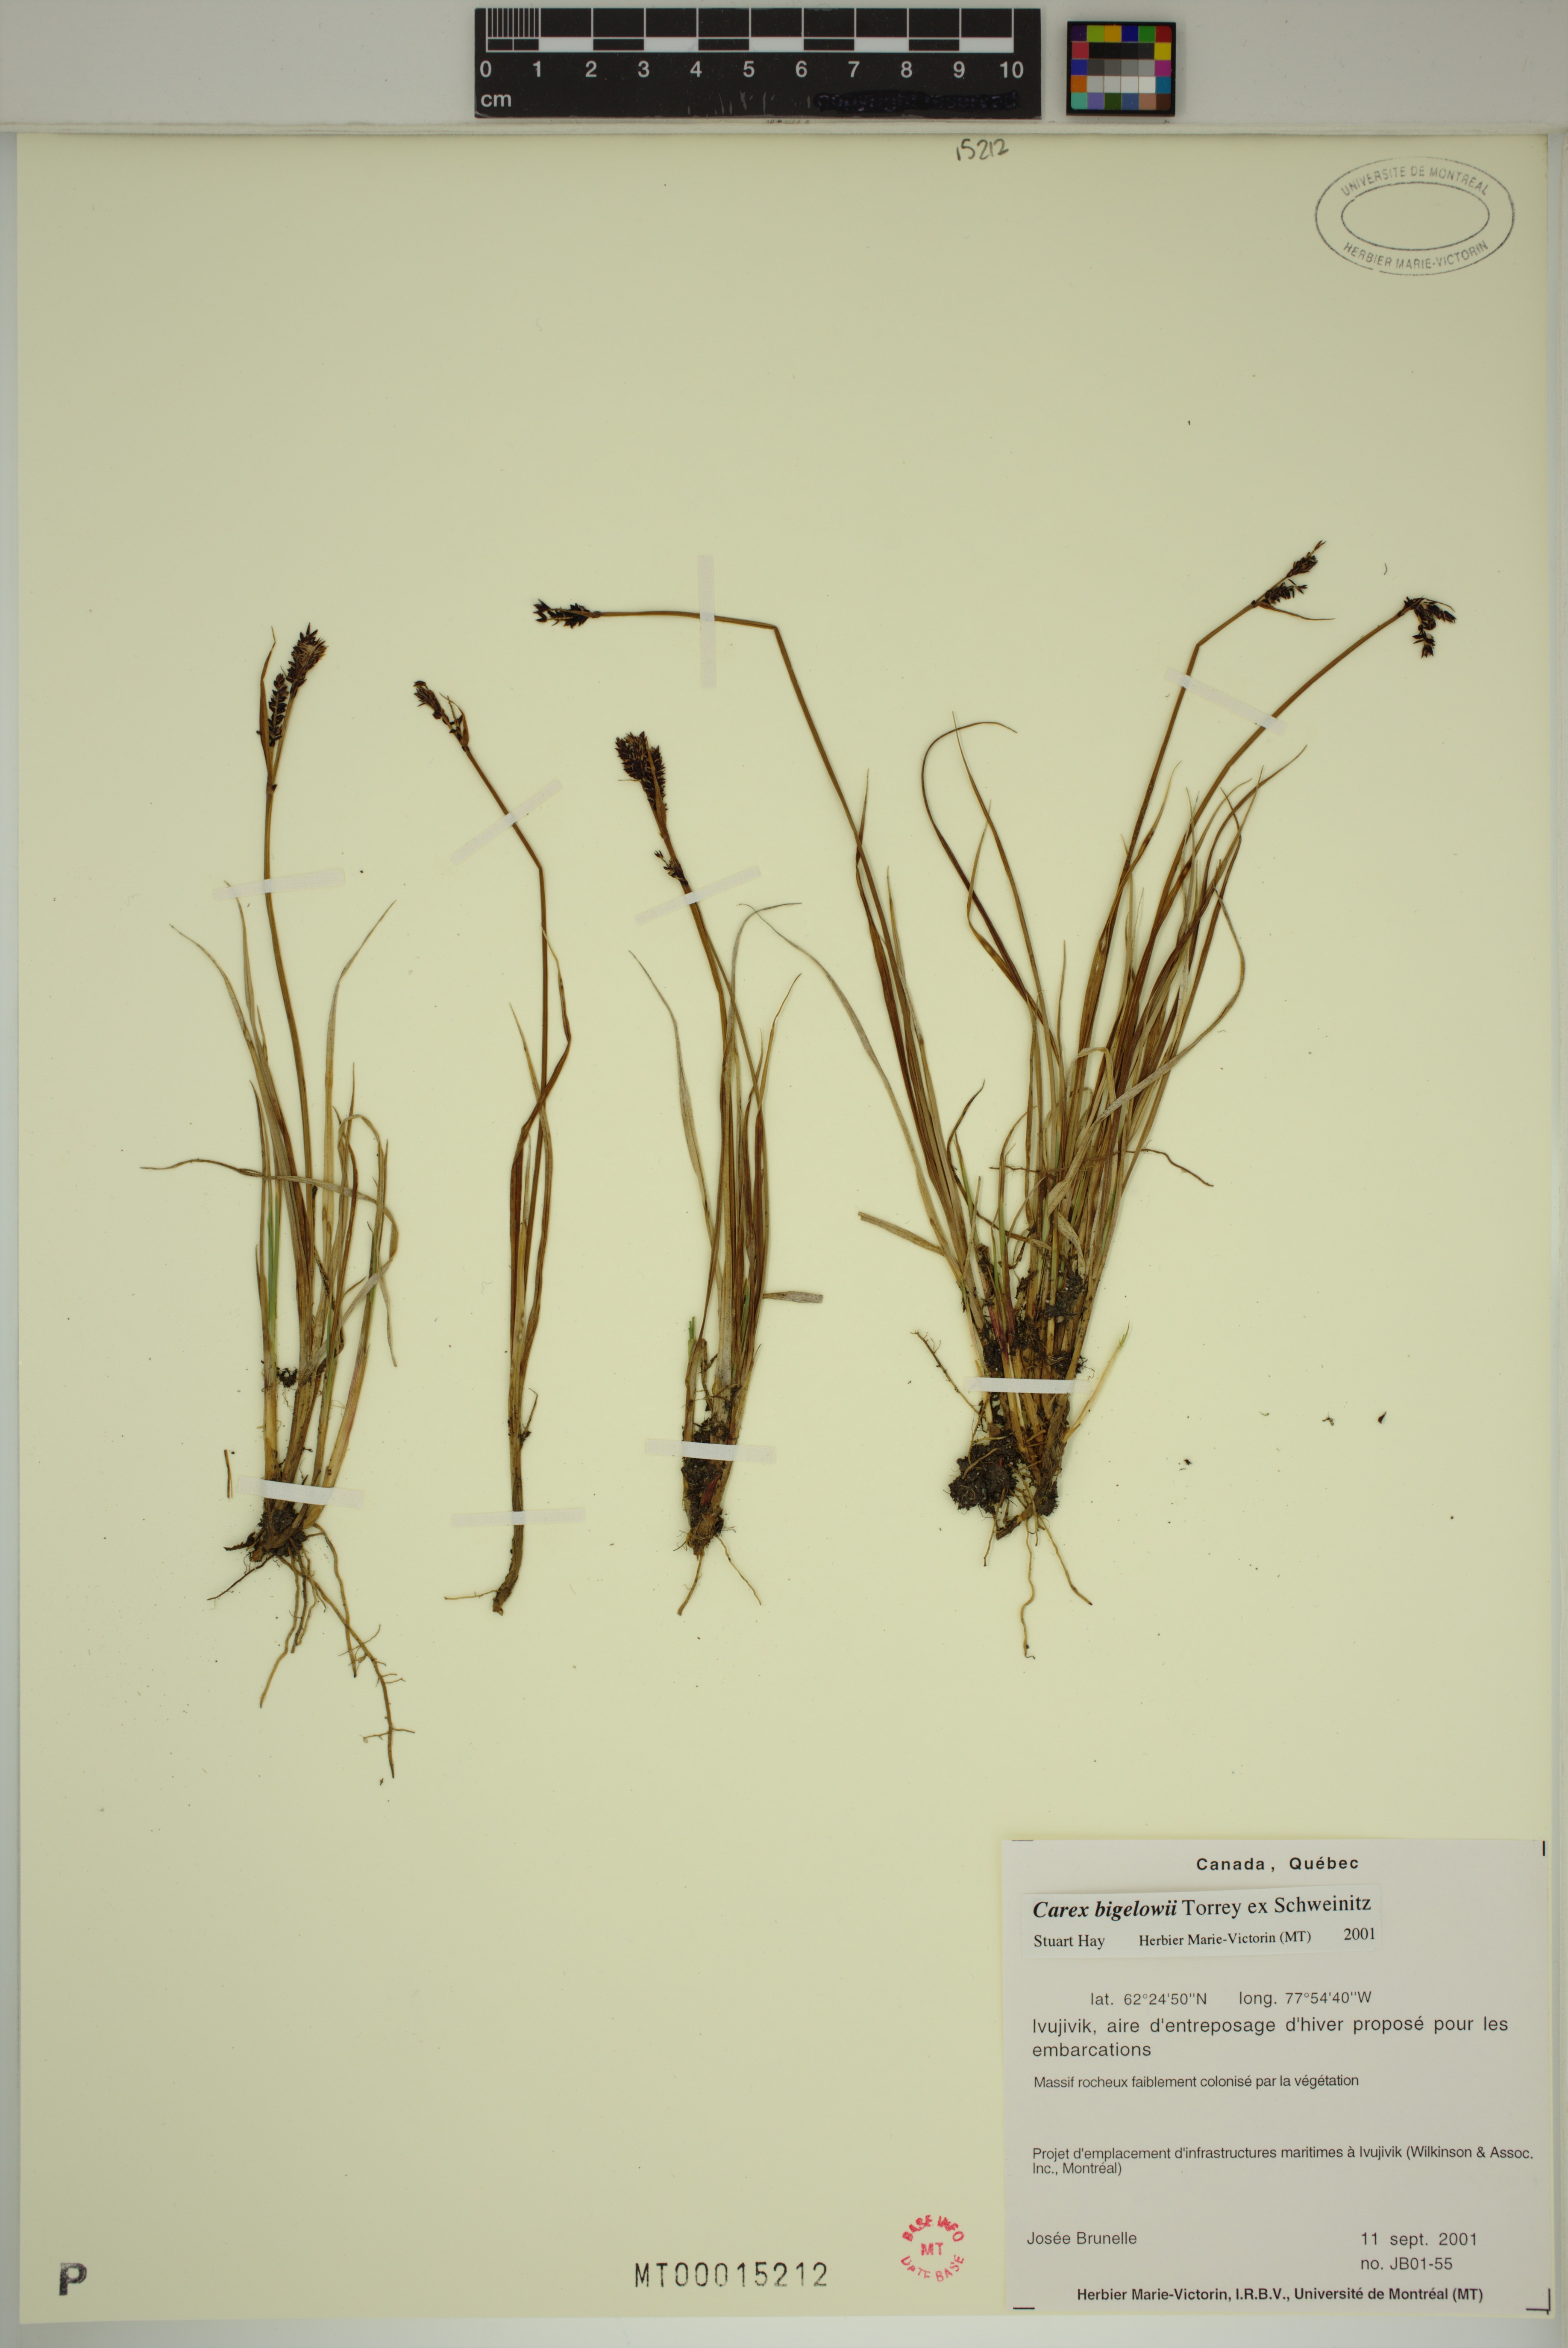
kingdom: Plantae
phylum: Tracheophyta
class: Liliopsida
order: Poales
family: Cyperaceae
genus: Carex
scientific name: Carex bigelowii
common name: Stiff sedge
